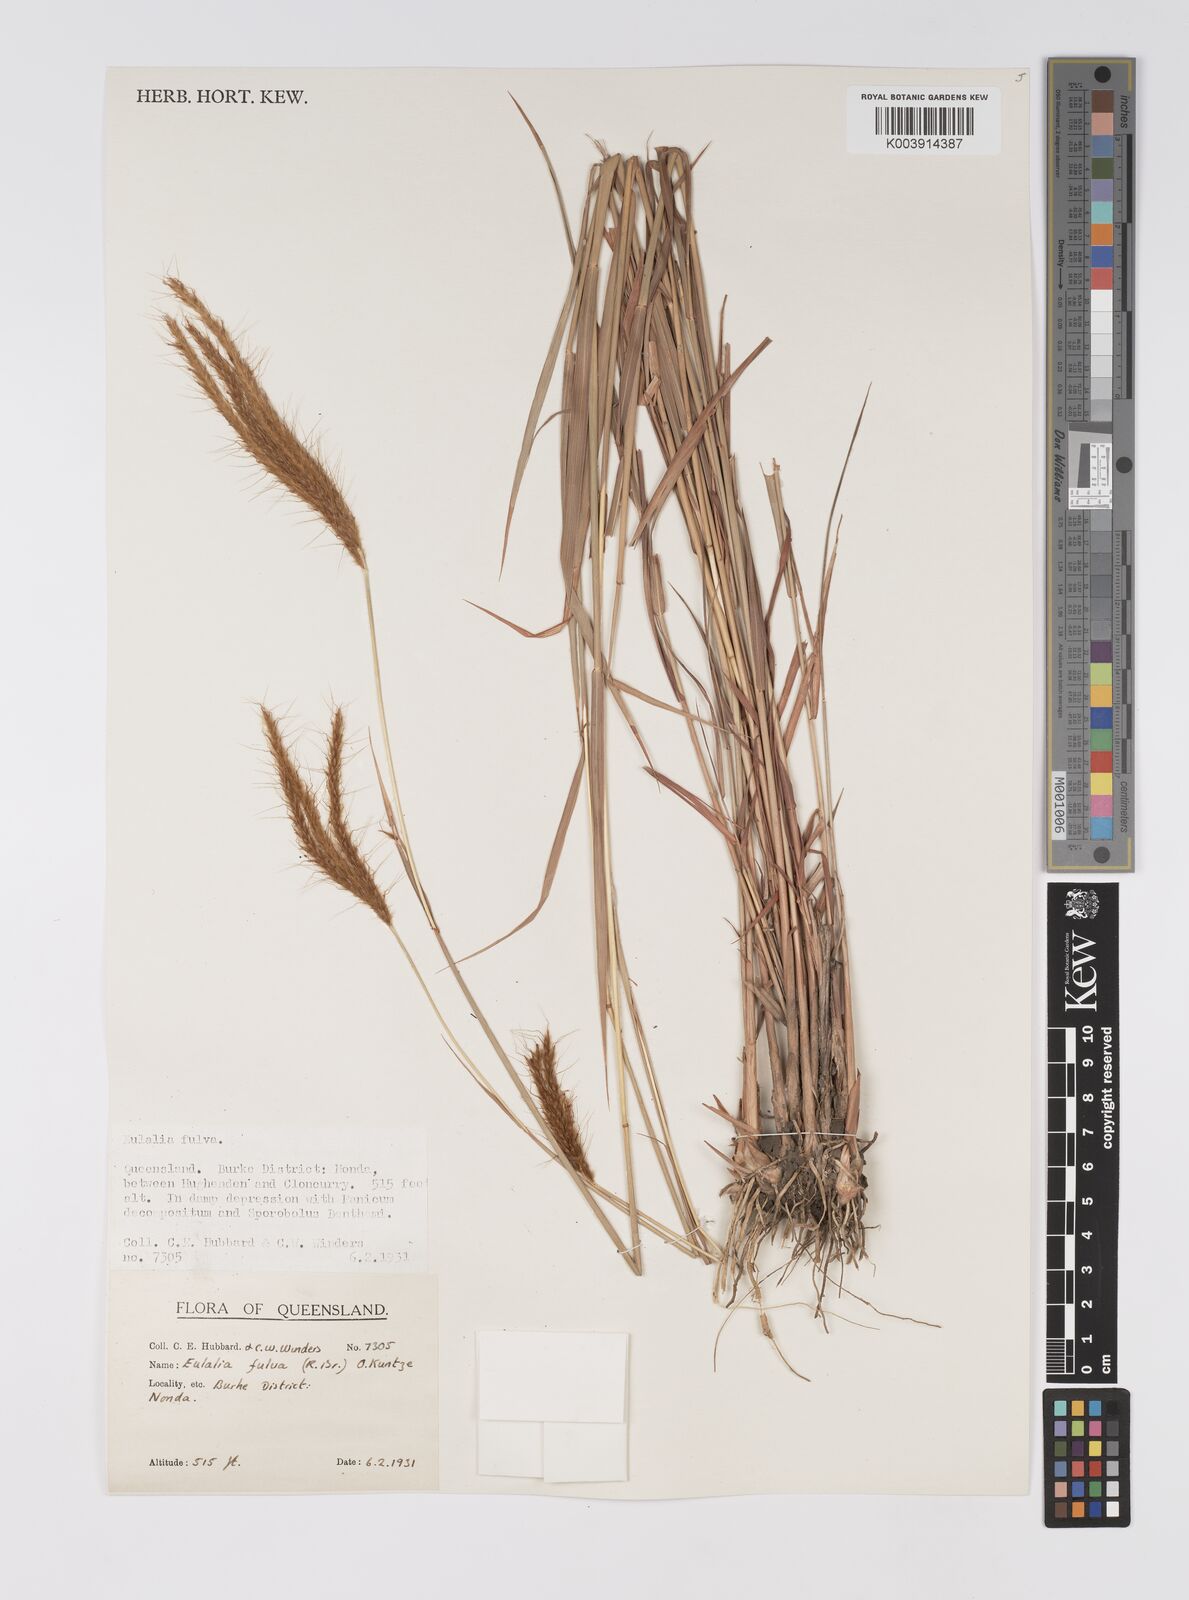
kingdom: Plantae
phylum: Tracheophyta
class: Liliopsida
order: Poales
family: Poaceae
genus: Eulalia
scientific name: Eulalia aurea
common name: Silky browntop
